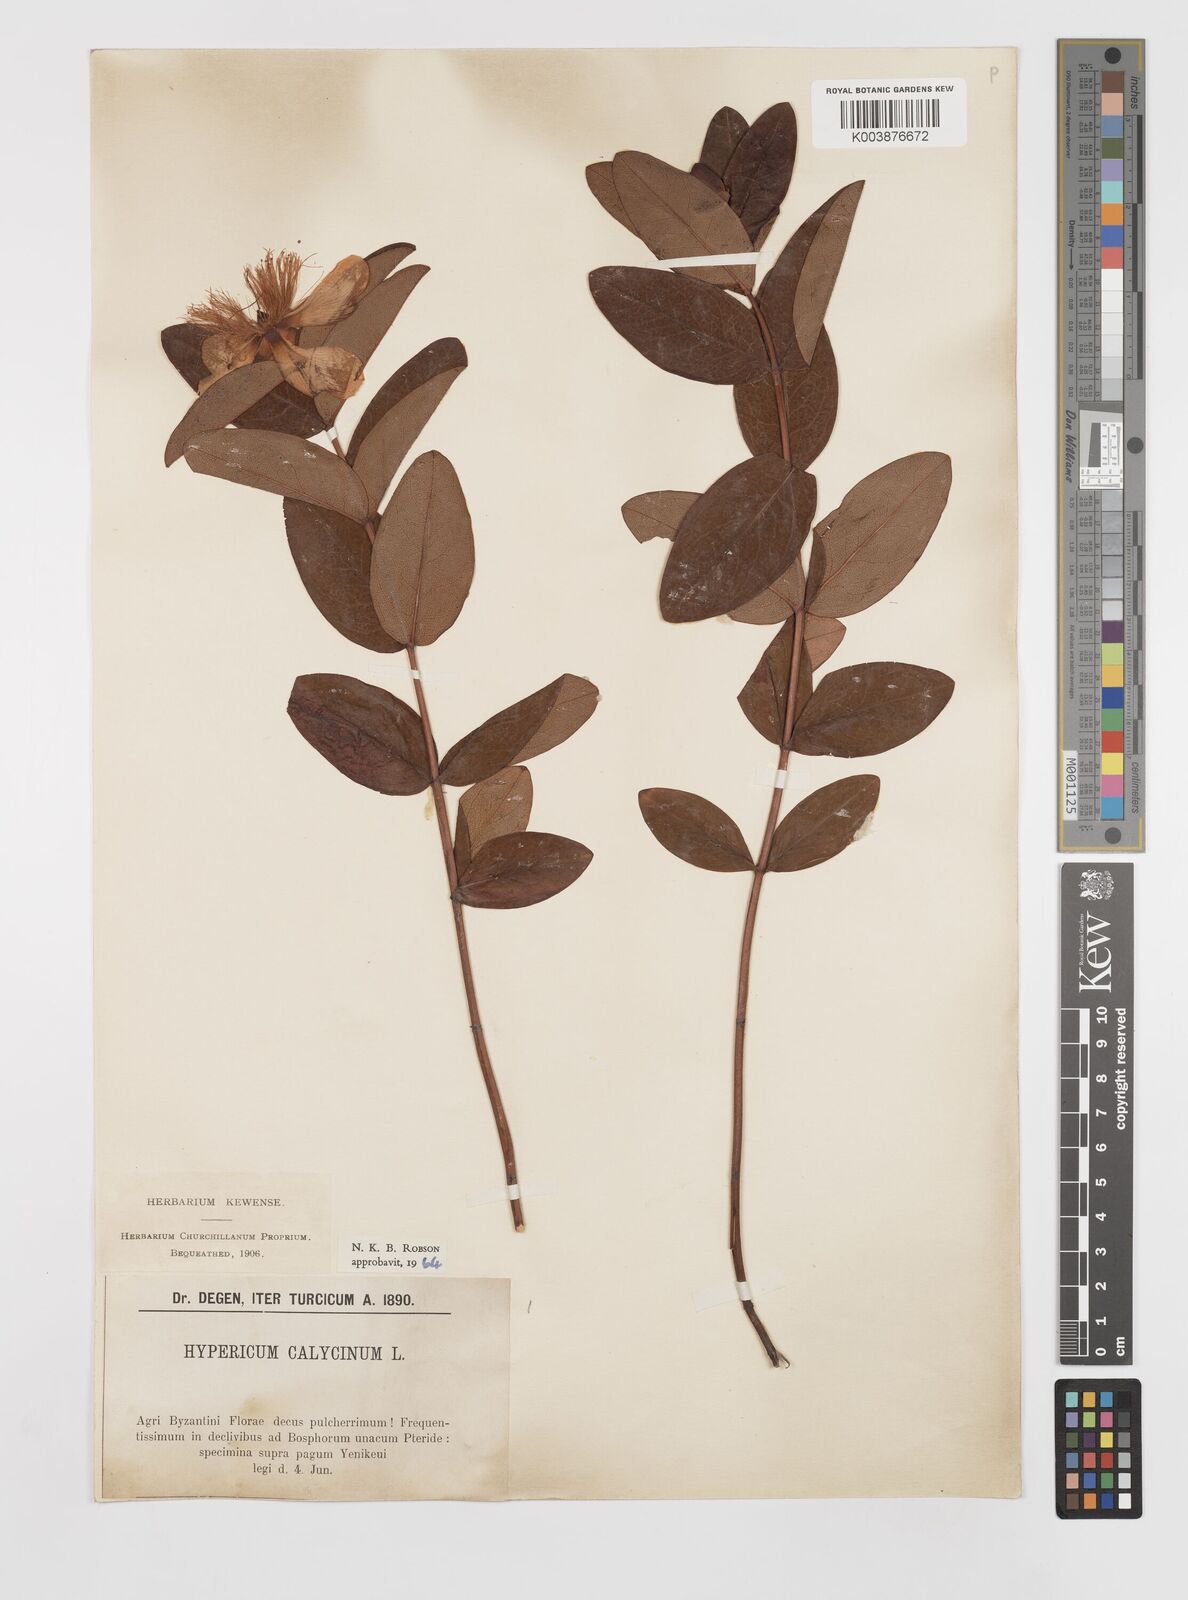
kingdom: Plantae
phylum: Tracheophyta
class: Magnoliopsida
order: Malpighiales
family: Hypericaceae
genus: Hypericum
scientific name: Hypericum calycinum
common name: Rose-of-sharon
